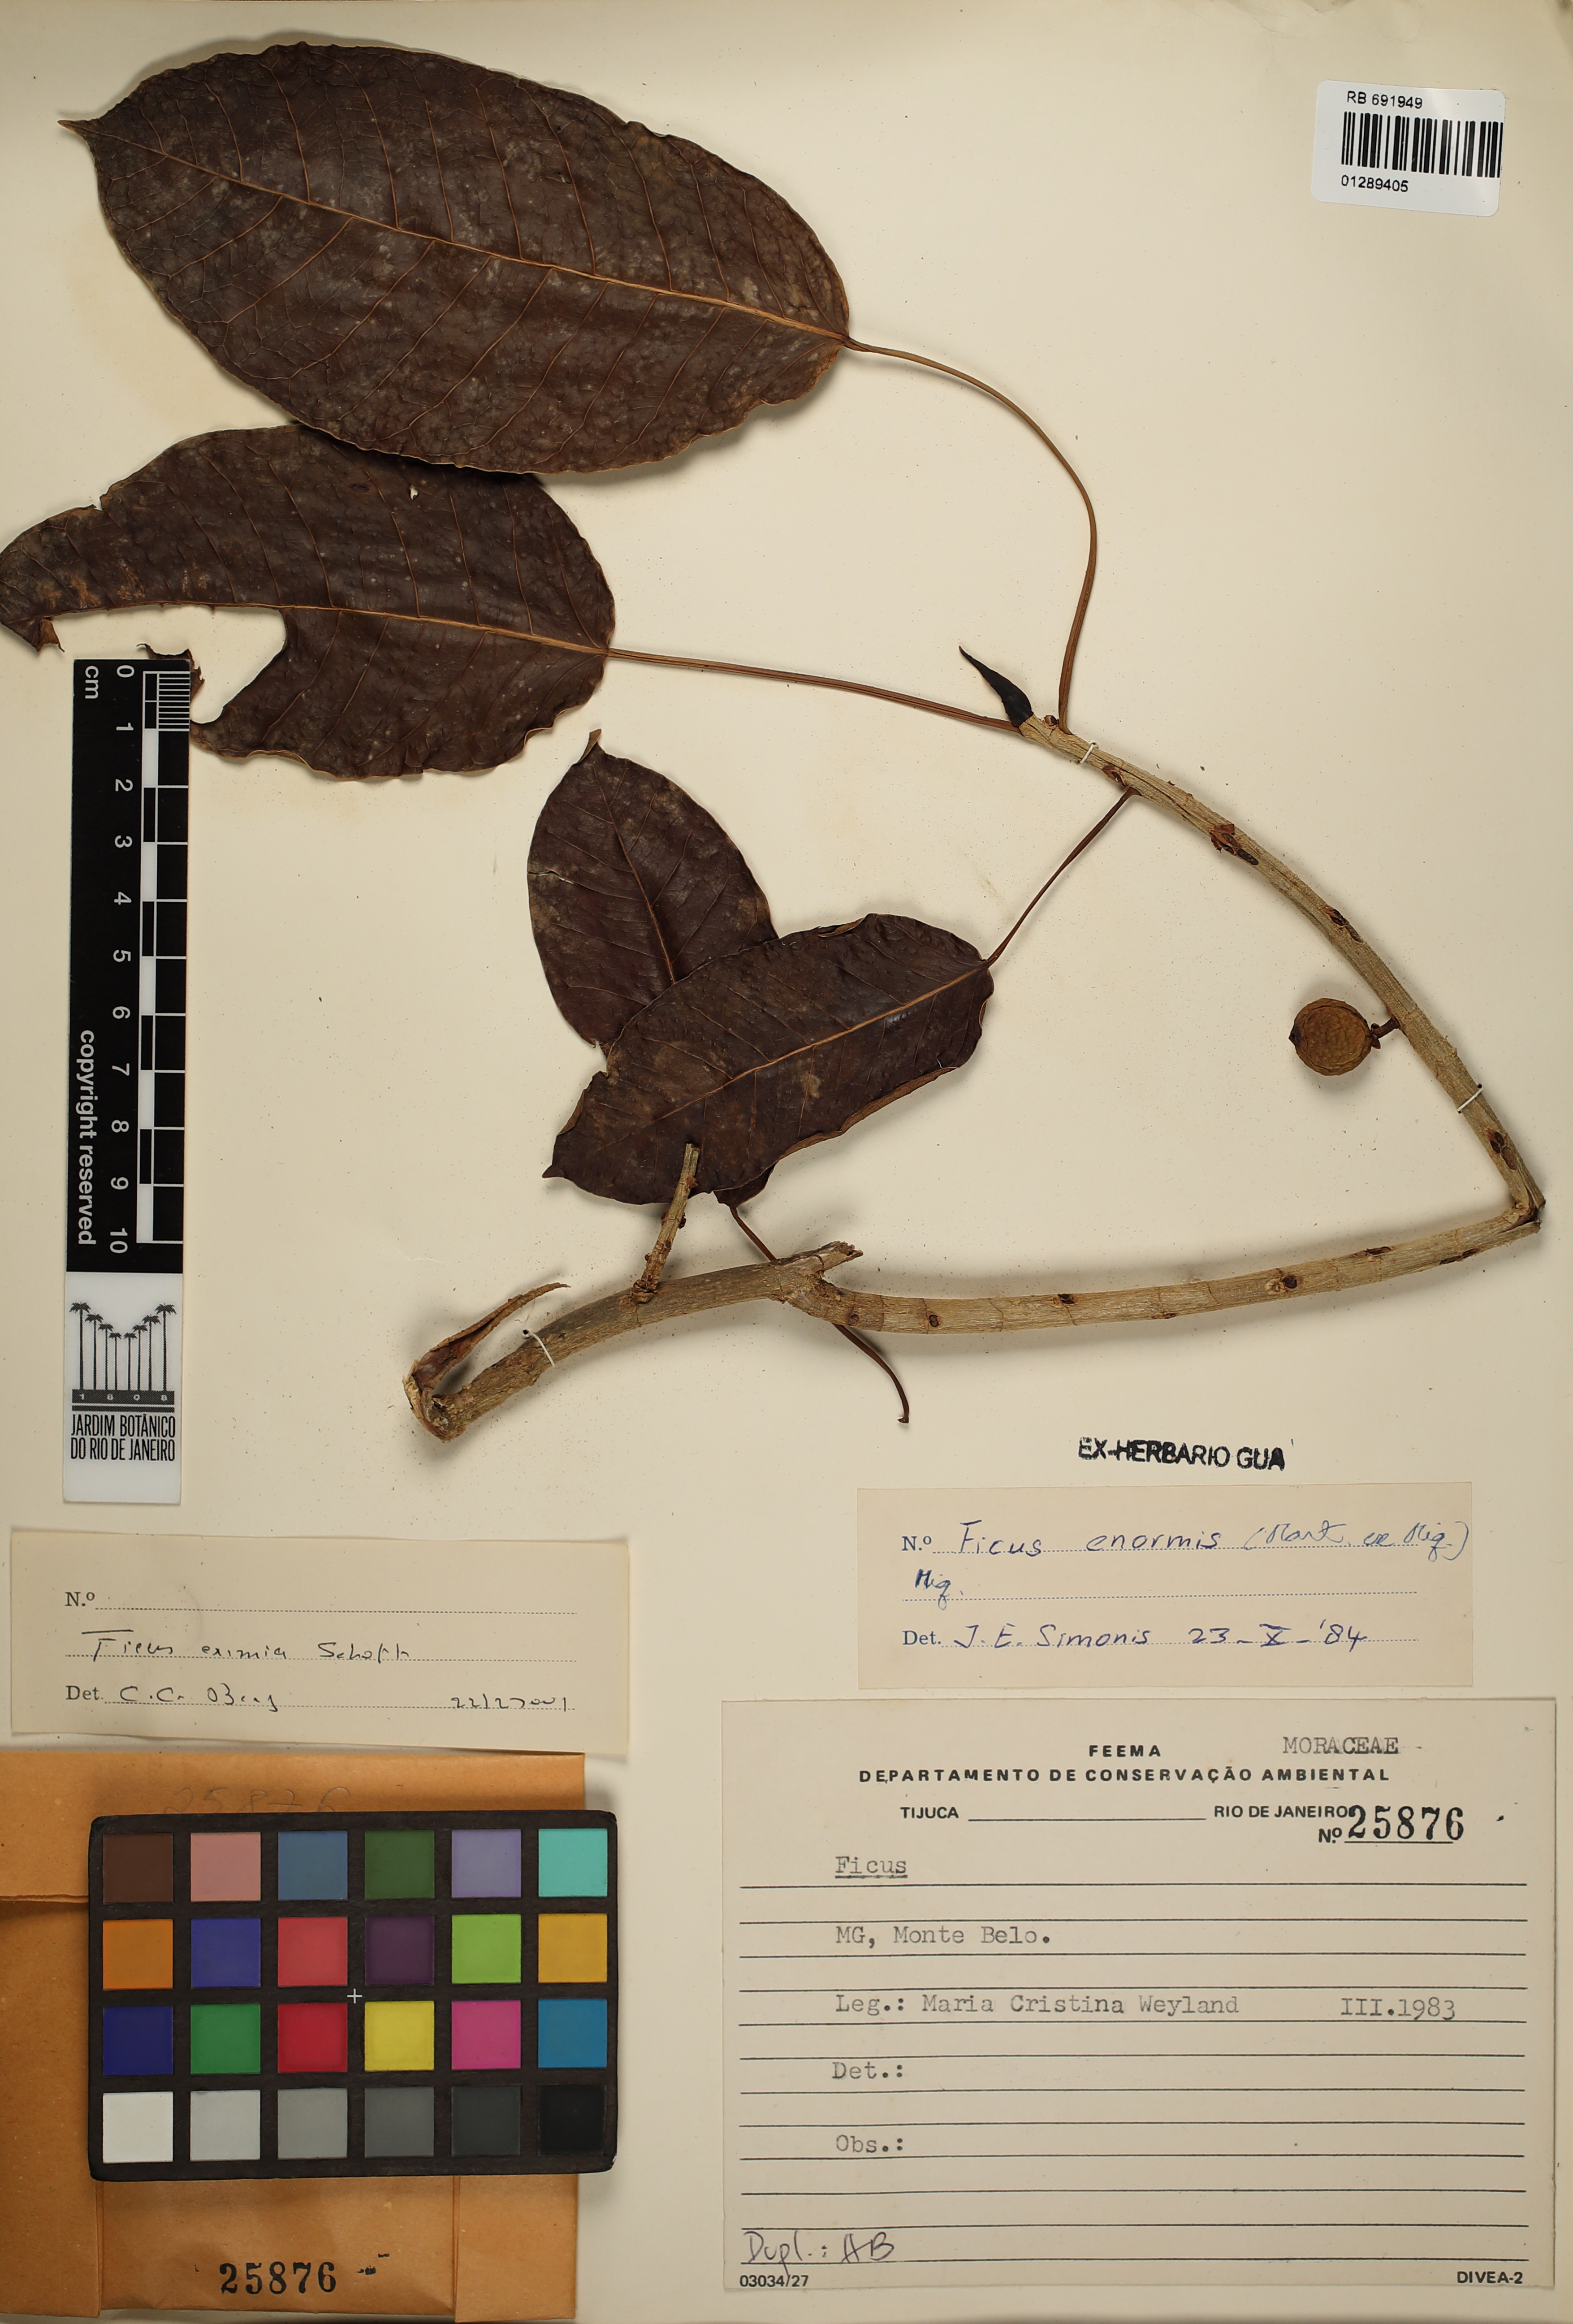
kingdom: Plantae
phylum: Tracheophyta
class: Magnoliopsida
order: Rosales
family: Moraceae
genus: Ficus
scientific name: Ficus eximia
